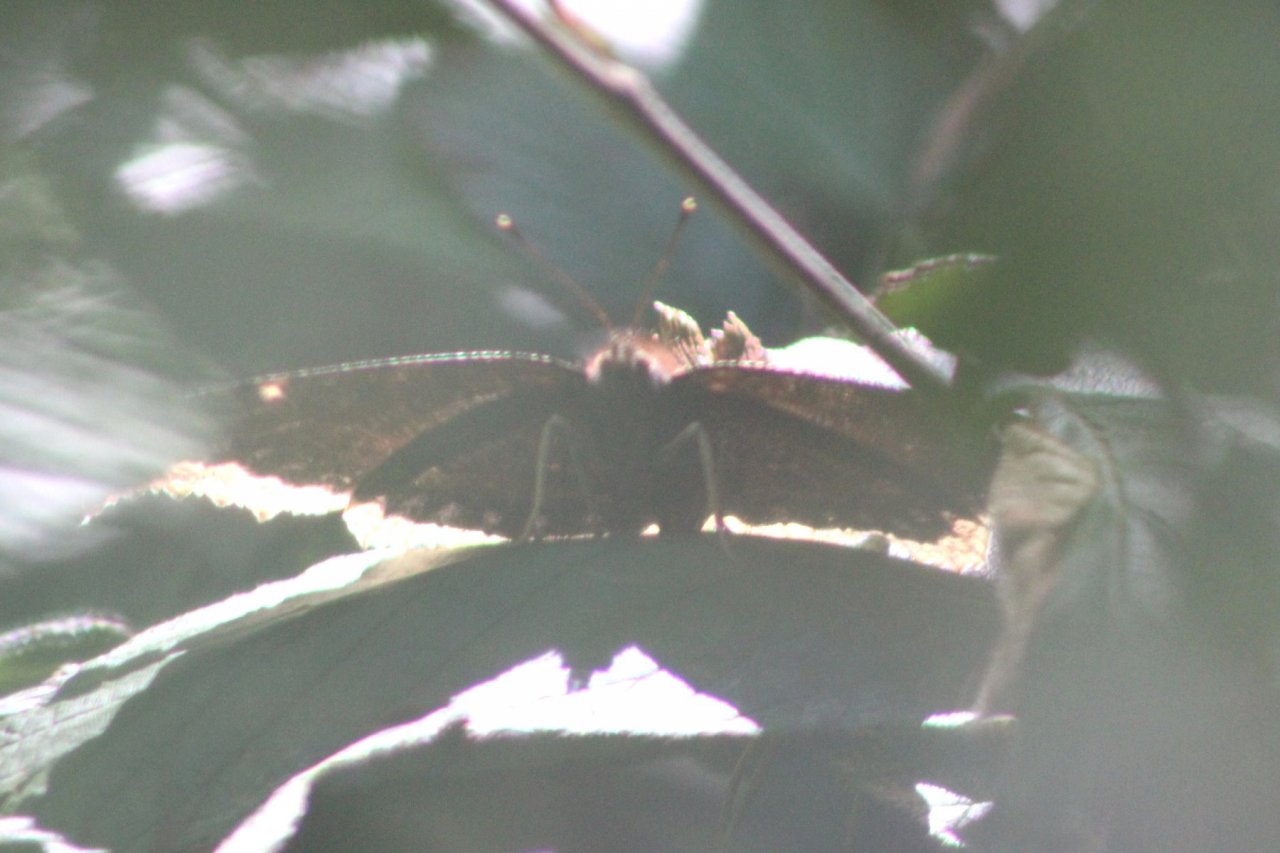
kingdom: Animalia
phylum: Arthropoda
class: Insecta
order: Lepidoptera
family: Nymphalidae
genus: Nymphalis
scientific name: Nymphalis antiopa
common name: Mourning Cloak
